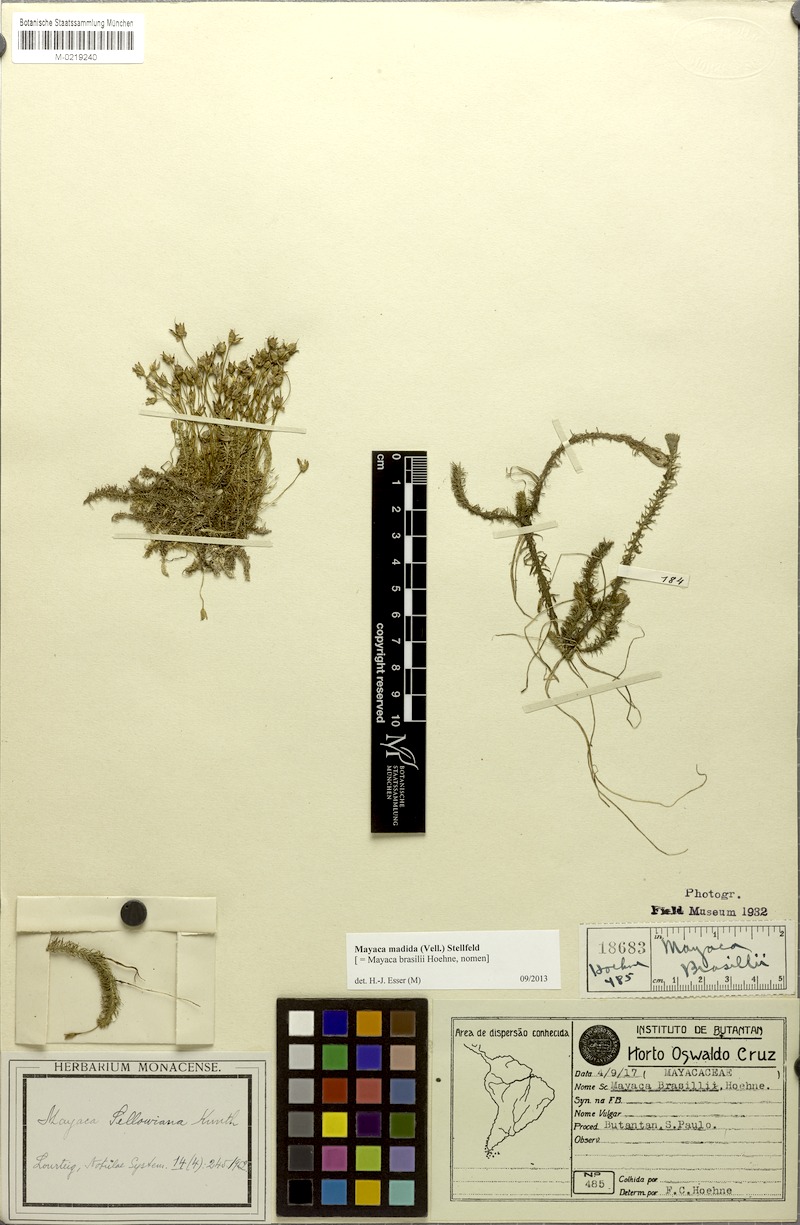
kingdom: Plantae
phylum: Tracheophyta
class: Liliopsida
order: Poales
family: Mayacaceae
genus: Mayaca
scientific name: Mayaca fluviatilis
